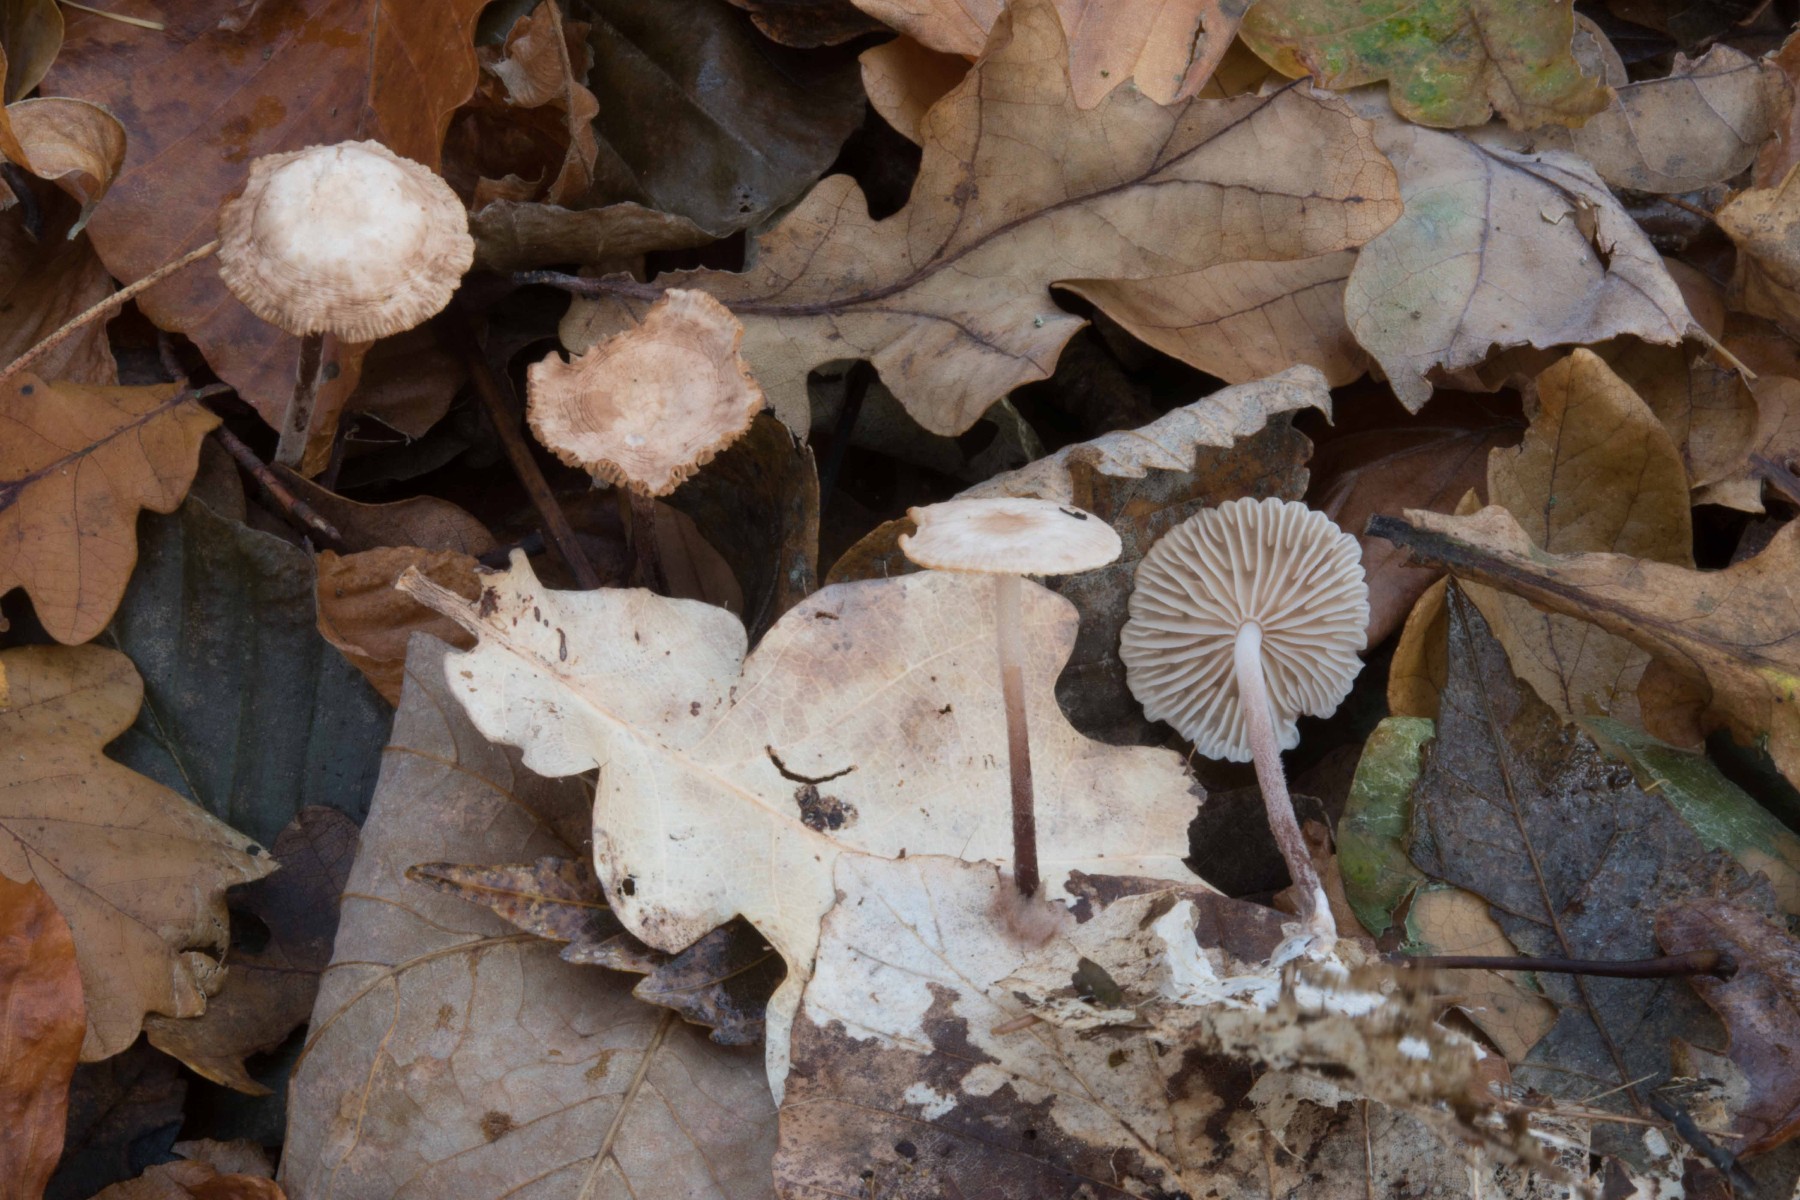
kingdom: Fungi
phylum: Basidiomycota
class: Agaricomycetes
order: Agaricales
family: Omphalotaceae
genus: Mycetinis
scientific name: Mycetinis querceus
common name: ege-løghat
